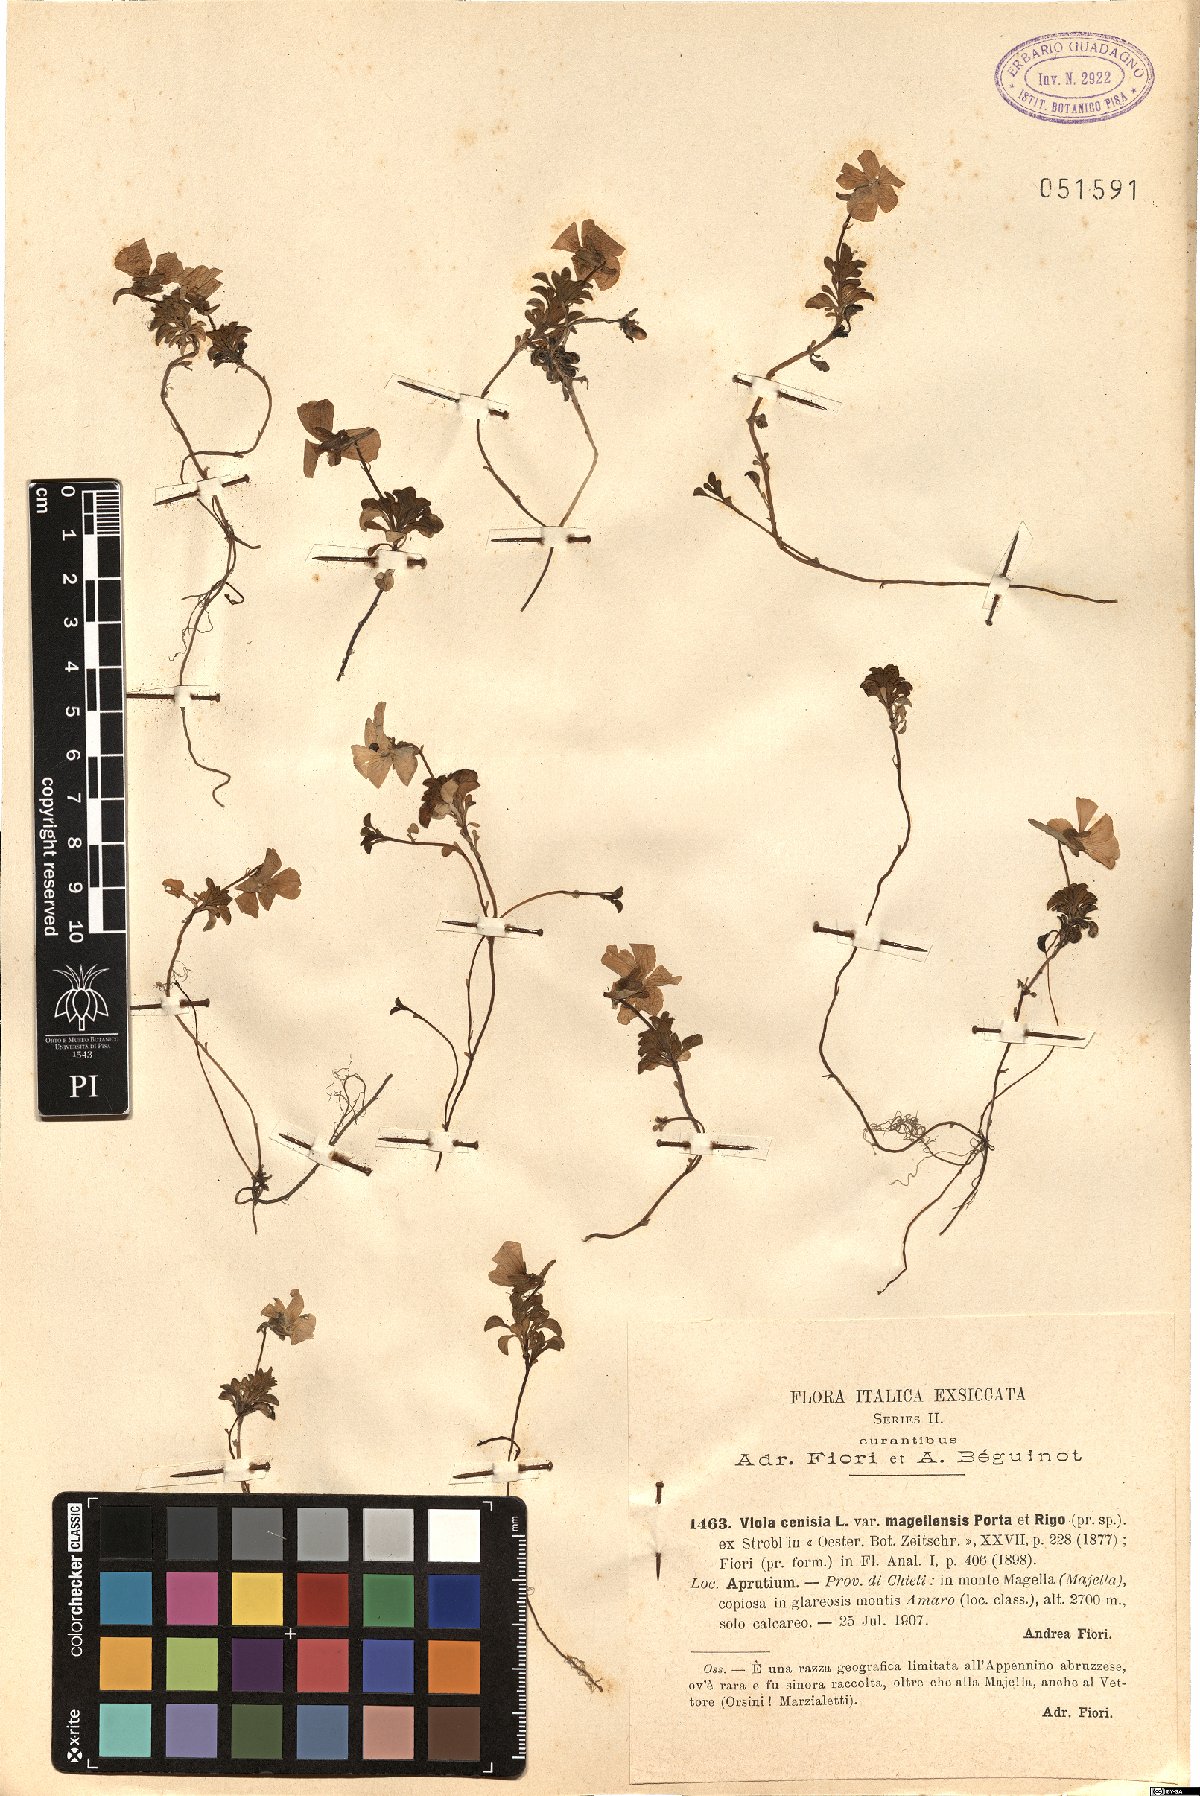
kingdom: Plantae
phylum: Tracheophyta
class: Magnoliopsida
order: Malpighiales
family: Violaceae
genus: Viola
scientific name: Viola cenisia
